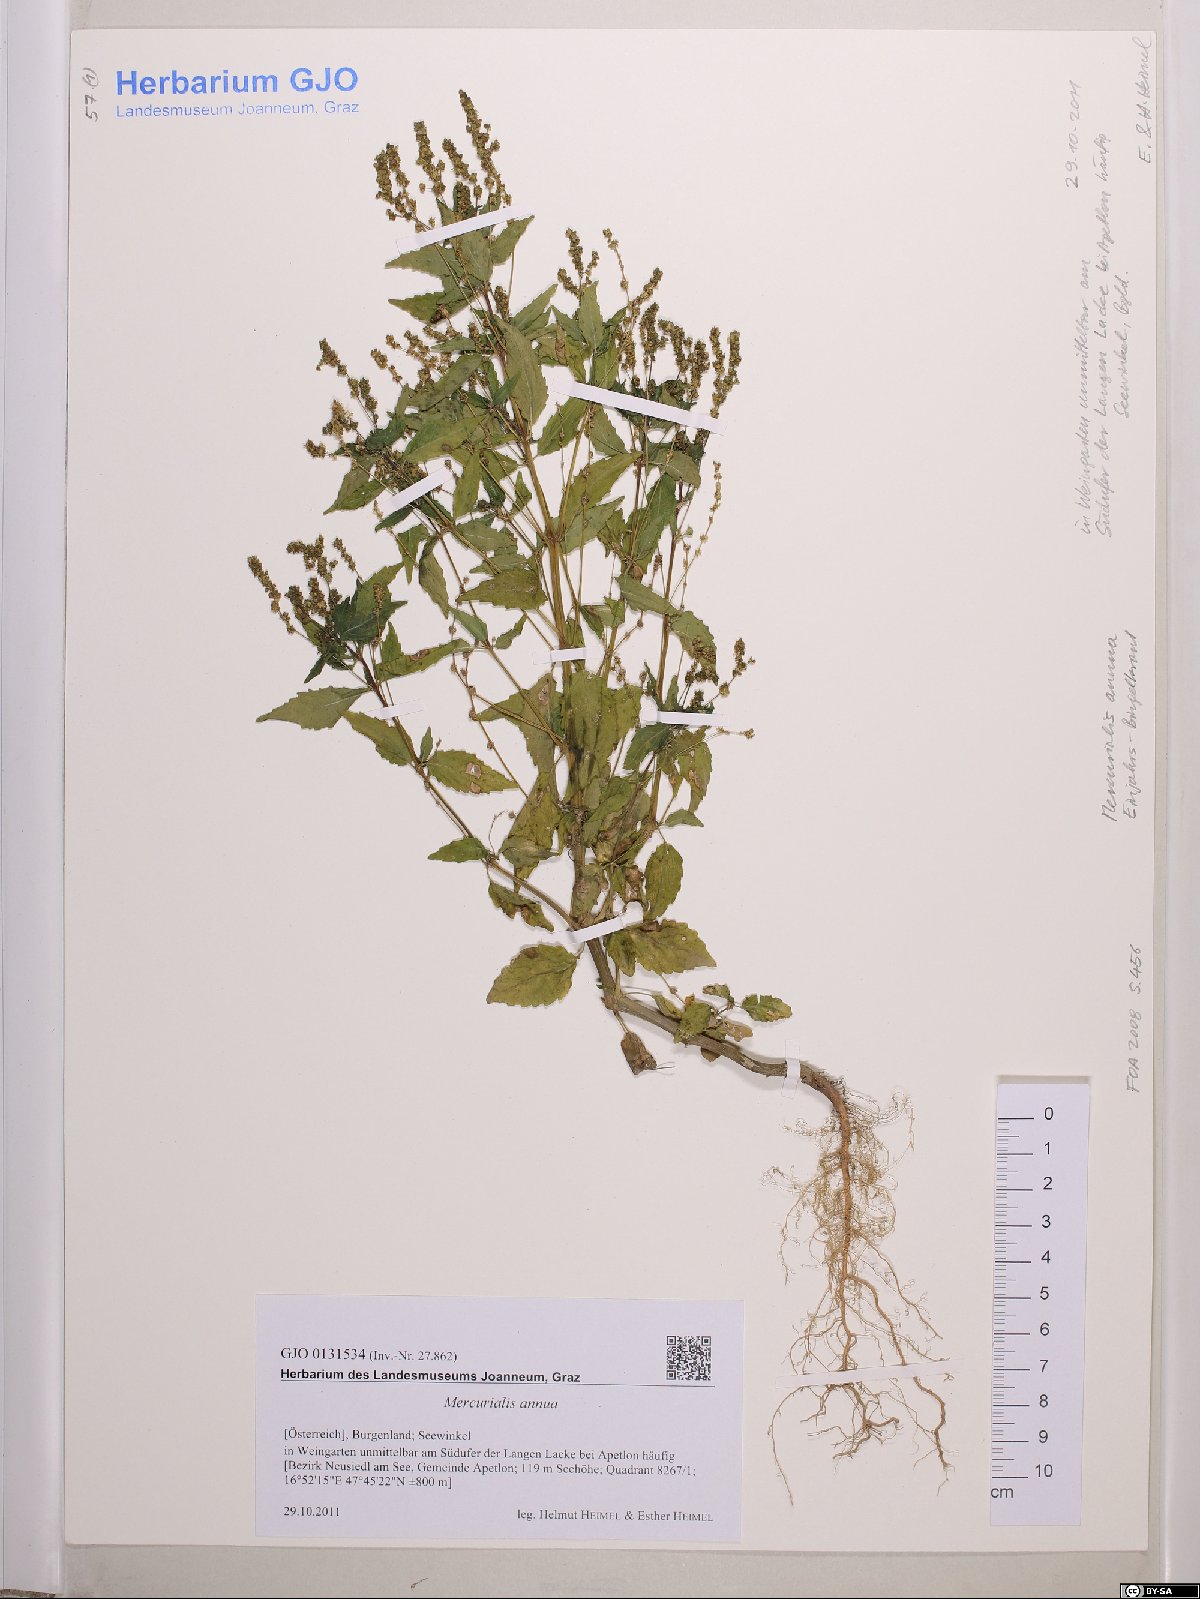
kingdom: Plantae
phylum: Tracheophyta
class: Magnoliopsida
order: Malpighiales
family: Euphorbiaceae
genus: Mercurialis
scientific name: Mercurialis annua
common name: Annual mercury
